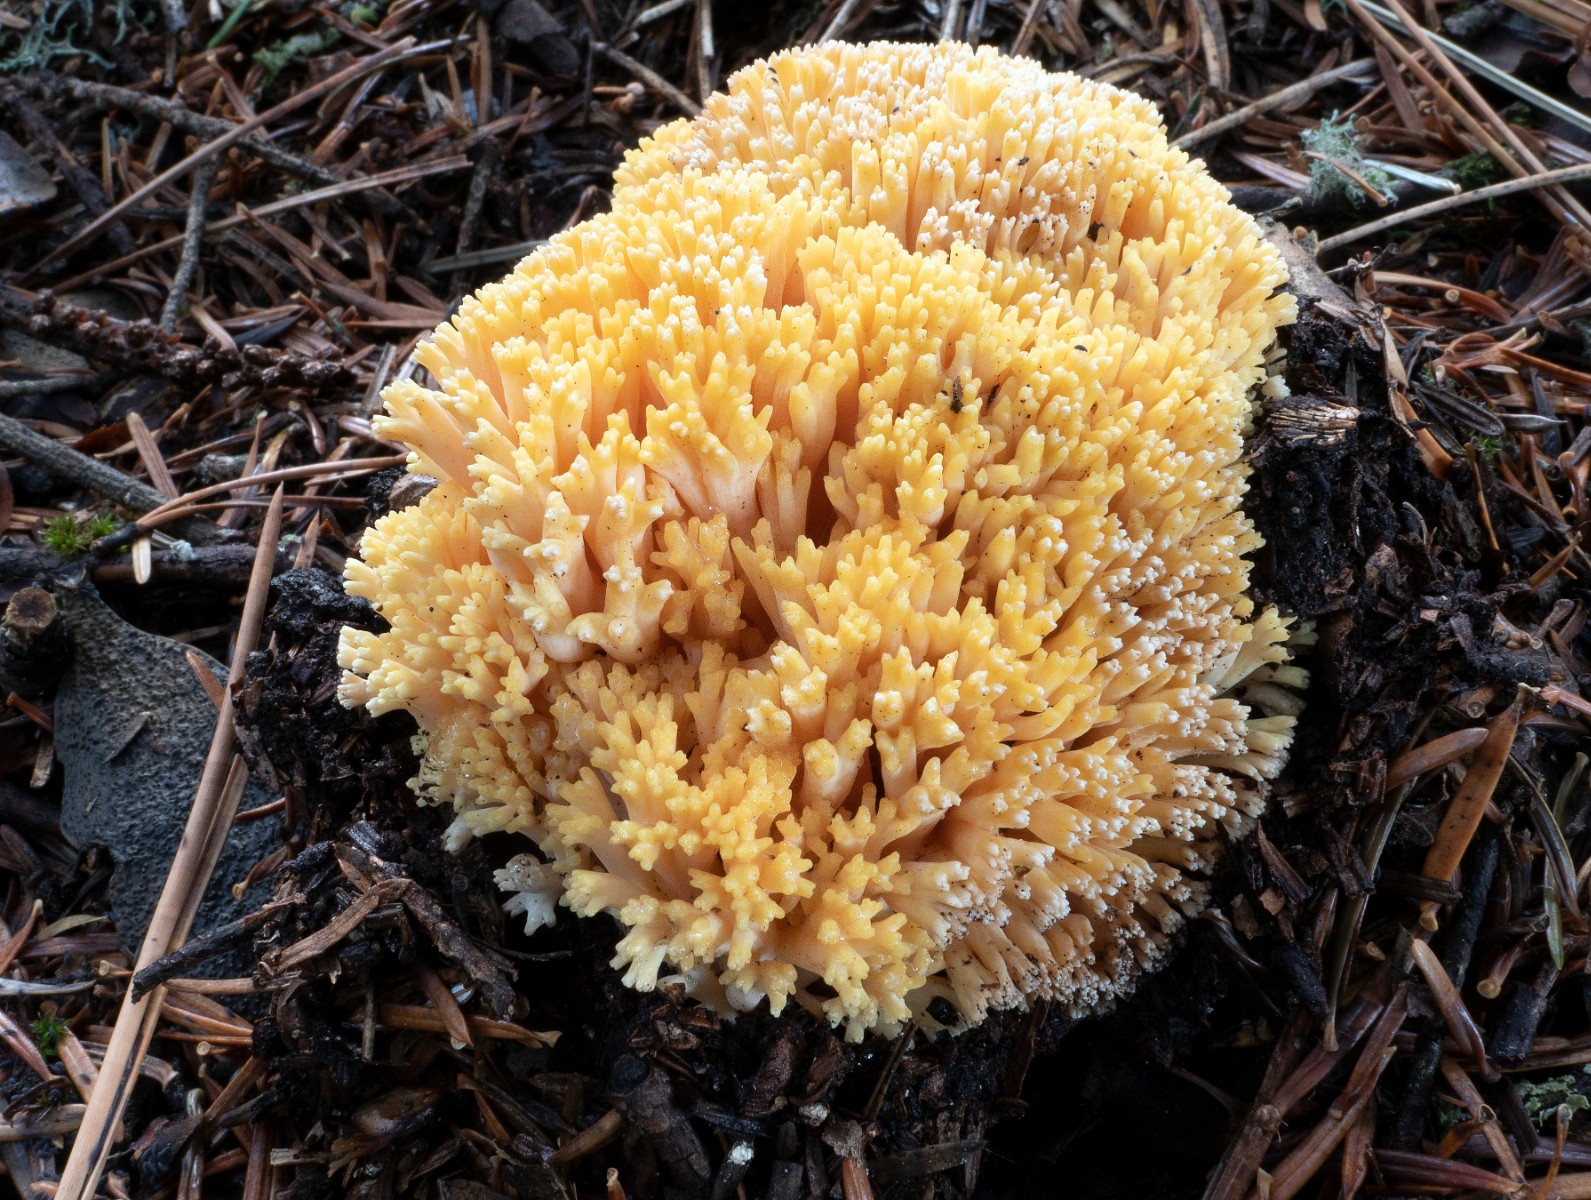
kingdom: Fungi
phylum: Basidiomycota
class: Agaricomycetes
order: Gomphales
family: Gomphaceae
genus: Ramaria
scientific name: Ramaria
